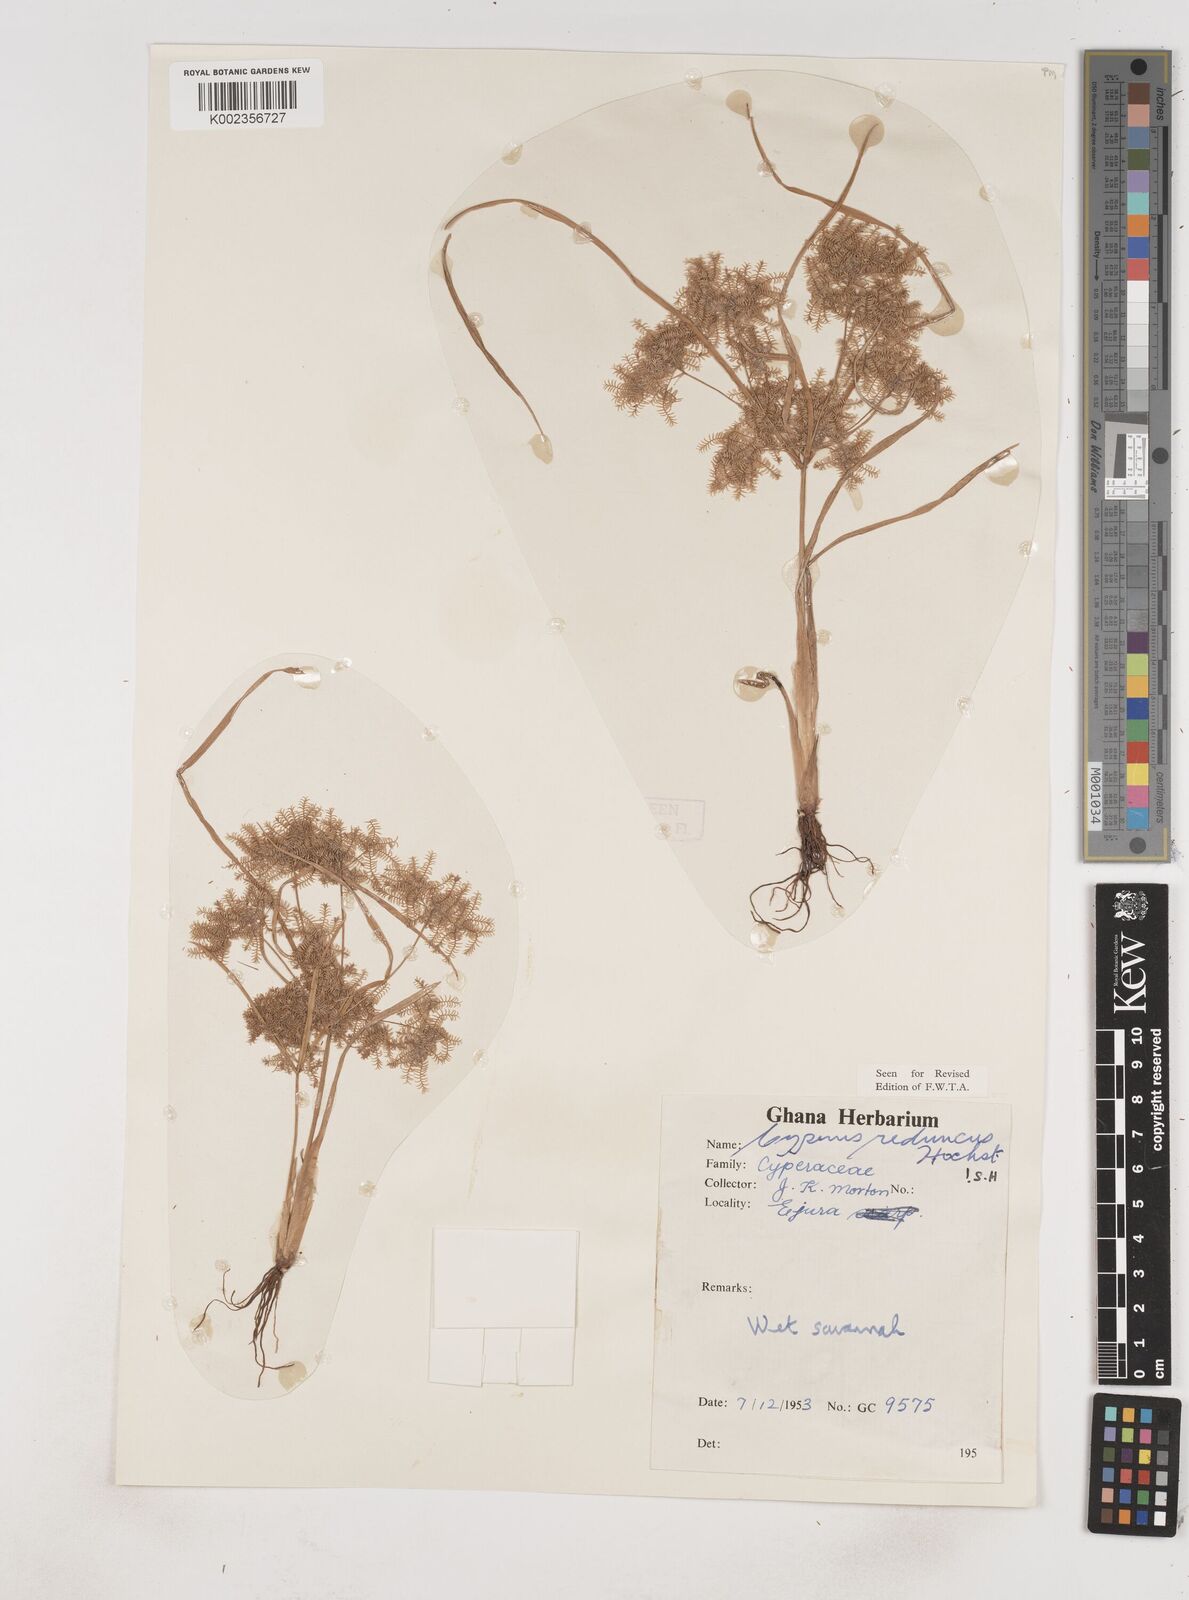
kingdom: Plantae
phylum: Tracheophyta
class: Liliopsida
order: Poales
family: Cyperaceae
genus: Cyperus
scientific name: Cyperus reduncus
